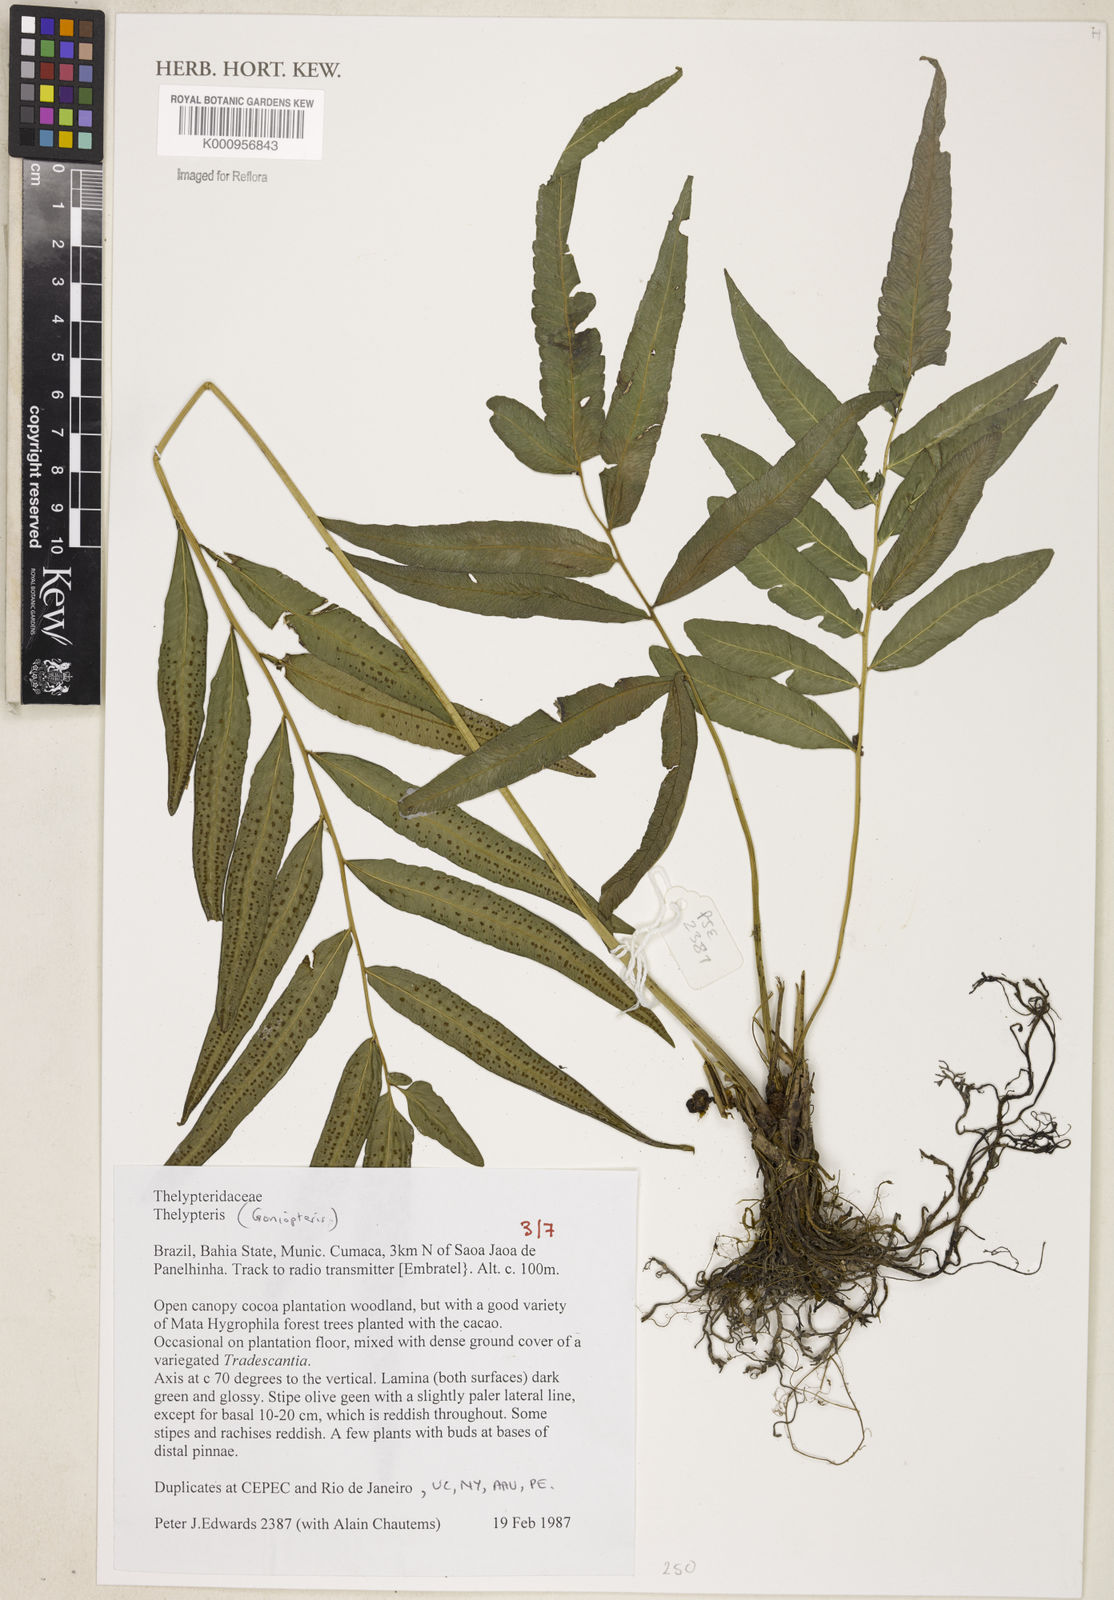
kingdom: Plantae
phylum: Tracheophyta
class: Polypodiopsida
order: Polypodiales
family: Thelypteridaceae
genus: Goniopteris
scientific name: Goniopteris
